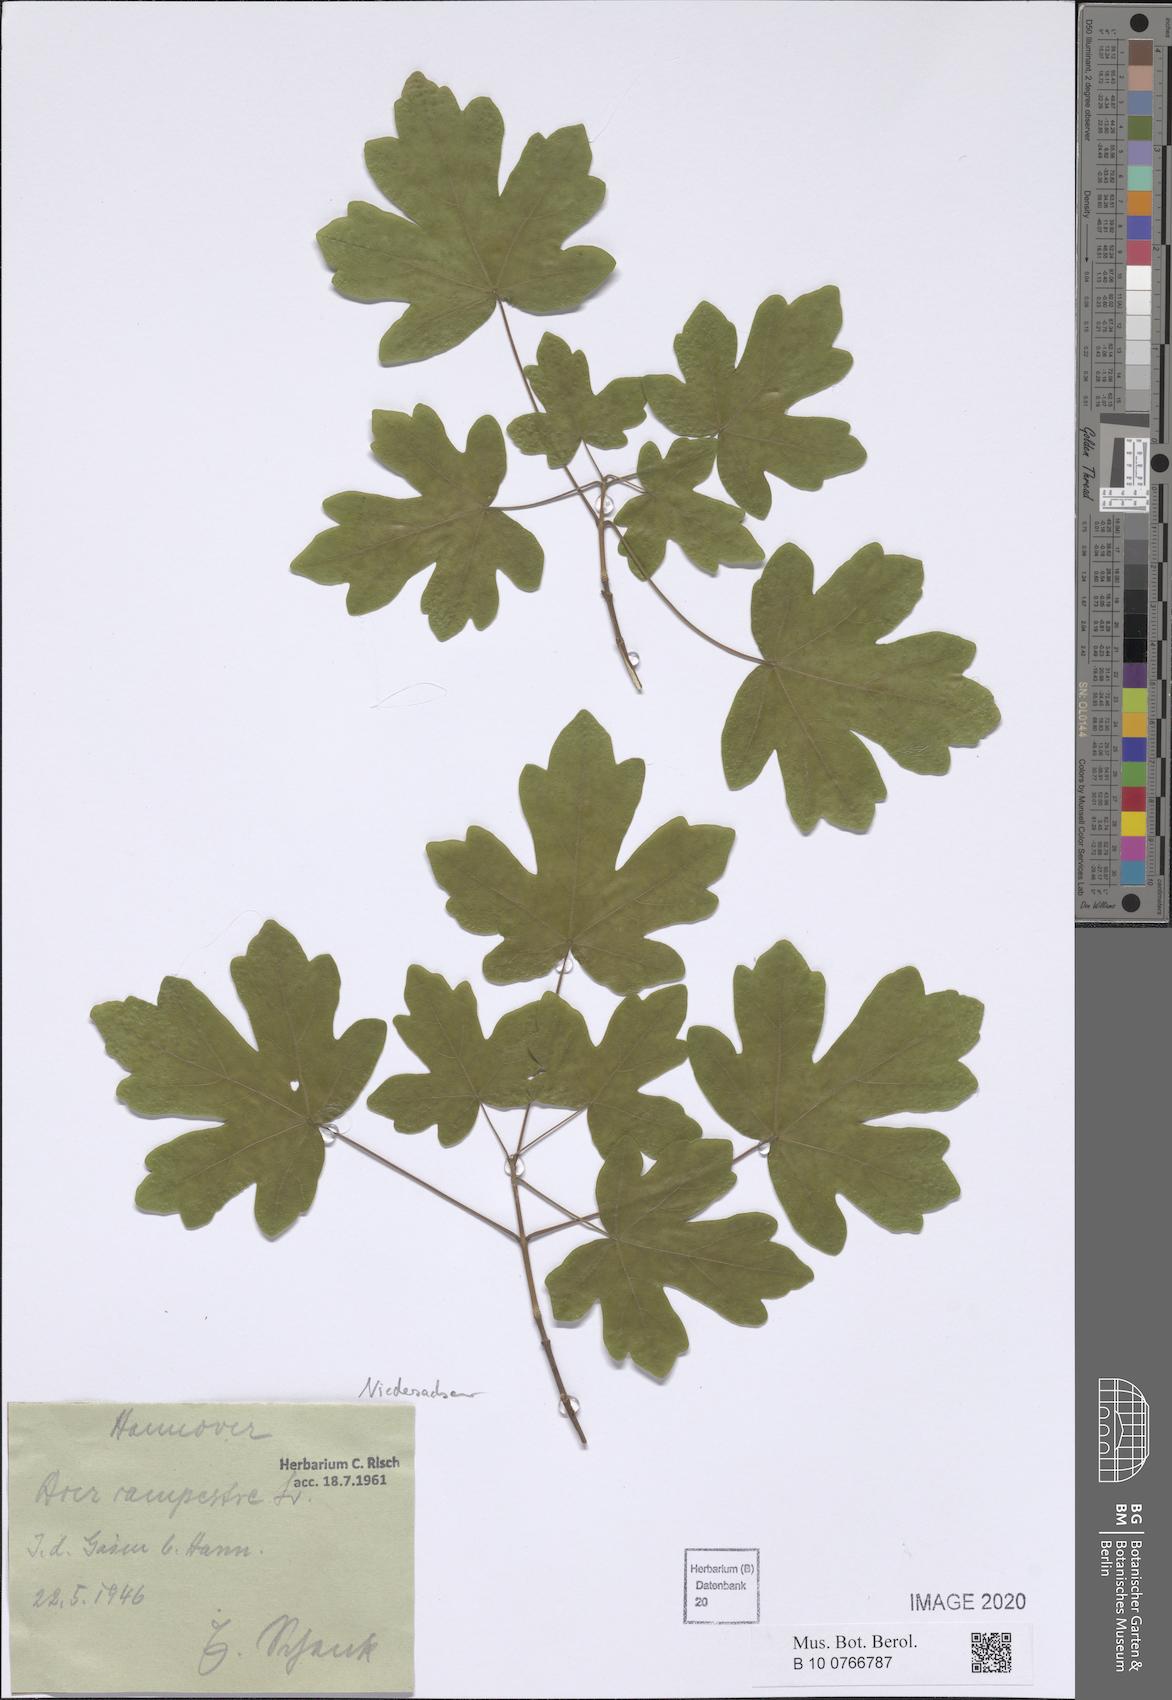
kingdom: Plantae
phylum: Tracheophyta
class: Magnoliopsida
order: Sapindales
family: Sapindaceae
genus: Acer
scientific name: Acer campestre
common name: Field maple
